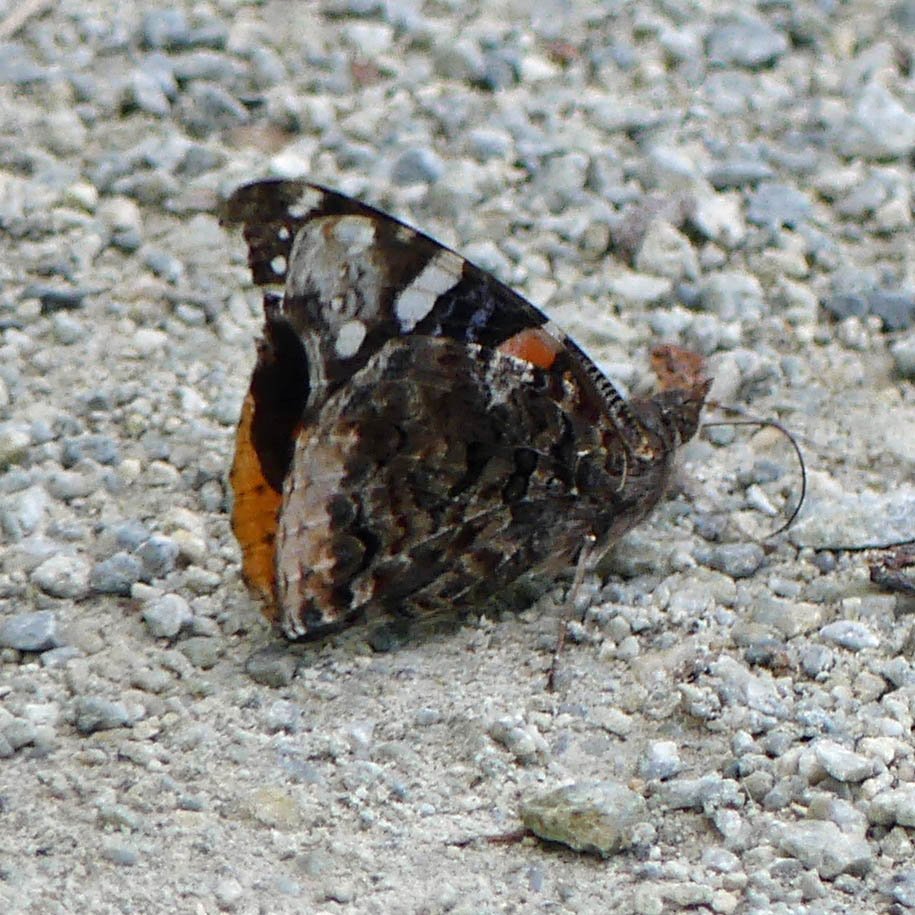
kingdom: Animalia
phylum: Arthropoda
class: Insecta
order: Lepidoptera
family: Nymphalidae
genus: Vanessa
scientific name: Vanessa atalanta
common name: Red Admiral
